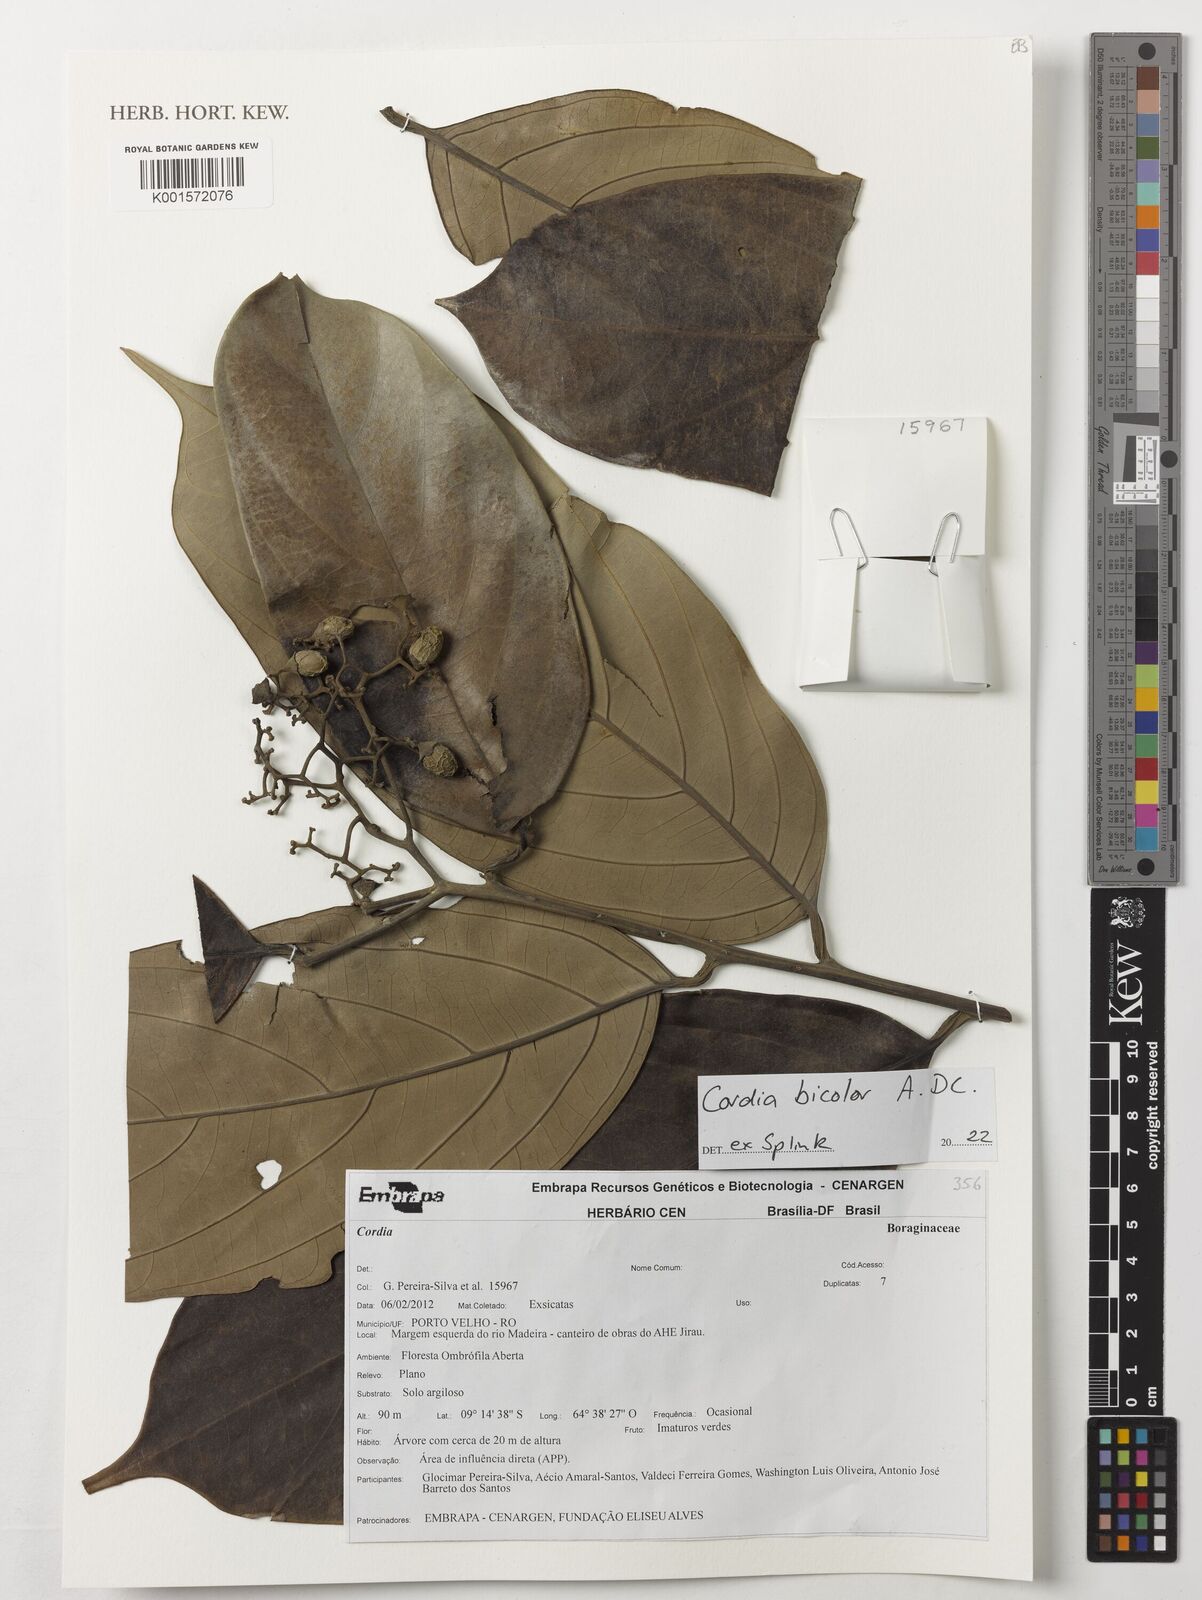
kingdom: Plantae
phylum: Tracheophyta
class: Magnoliopsida
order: Boraginales
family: Cordiaceae
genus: Cordia
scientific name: Cordia bicolor
